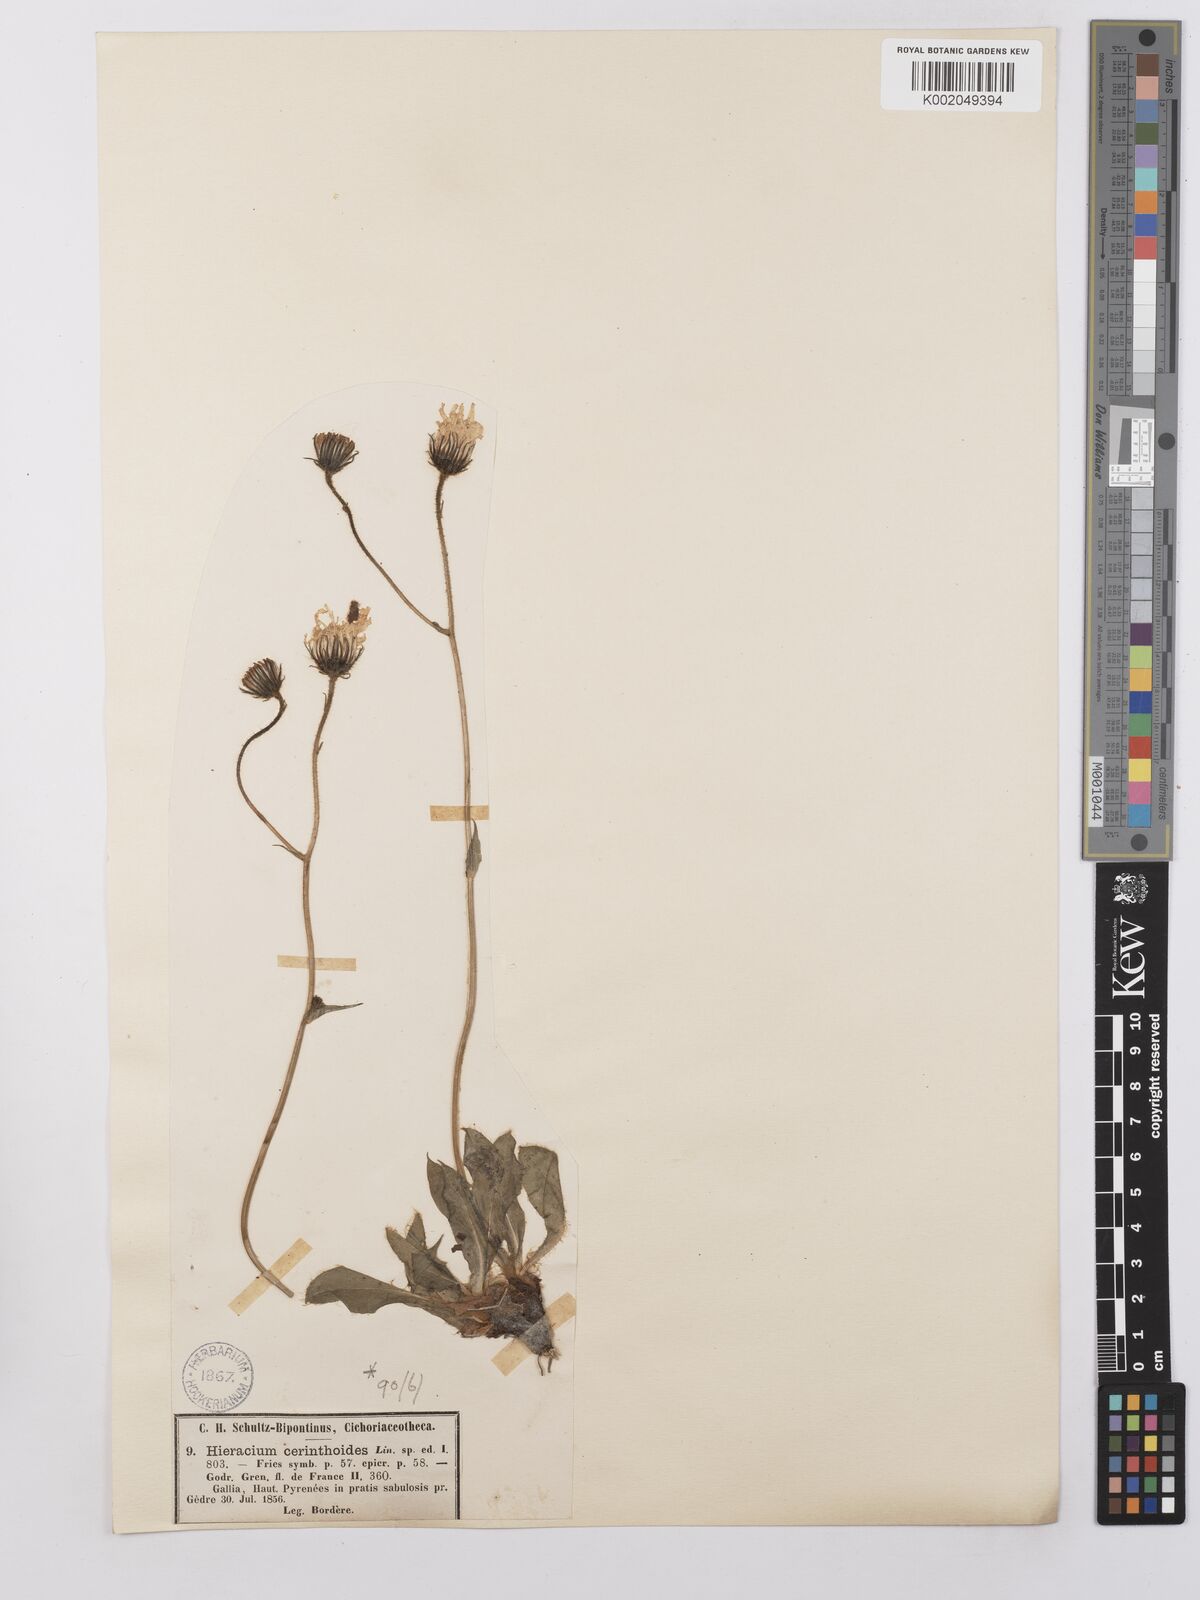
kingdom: Plantae
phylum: Tracheophyta
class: Magnoliopsida
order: Asterales
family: Asteraceae
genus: Hieracium
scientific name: Hieracium cerinthoides
